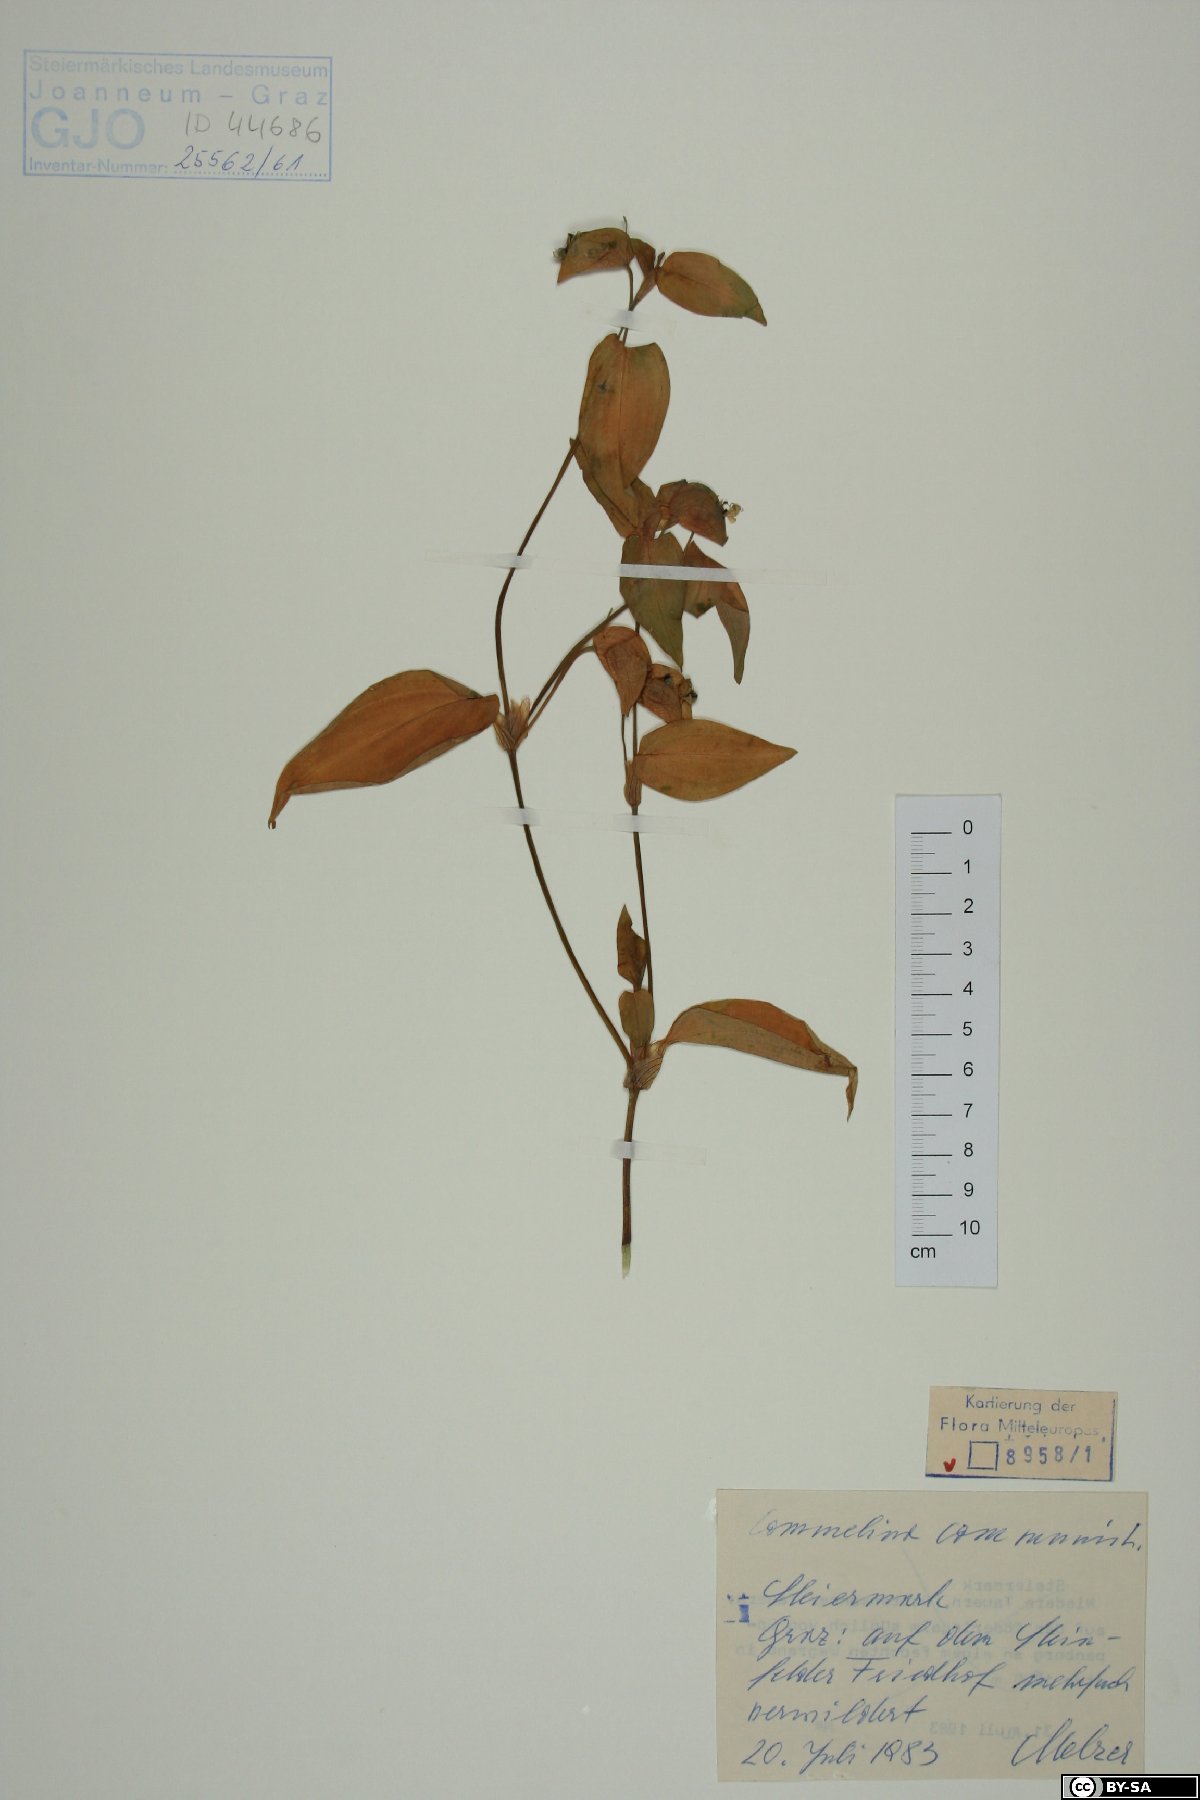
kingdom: Plantae
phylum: Tracheophyta
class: Liliopsida
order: Commelinales
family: Commelinaceae
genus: Commelina
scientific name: Commelina communis
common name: Asiatic dayflower
